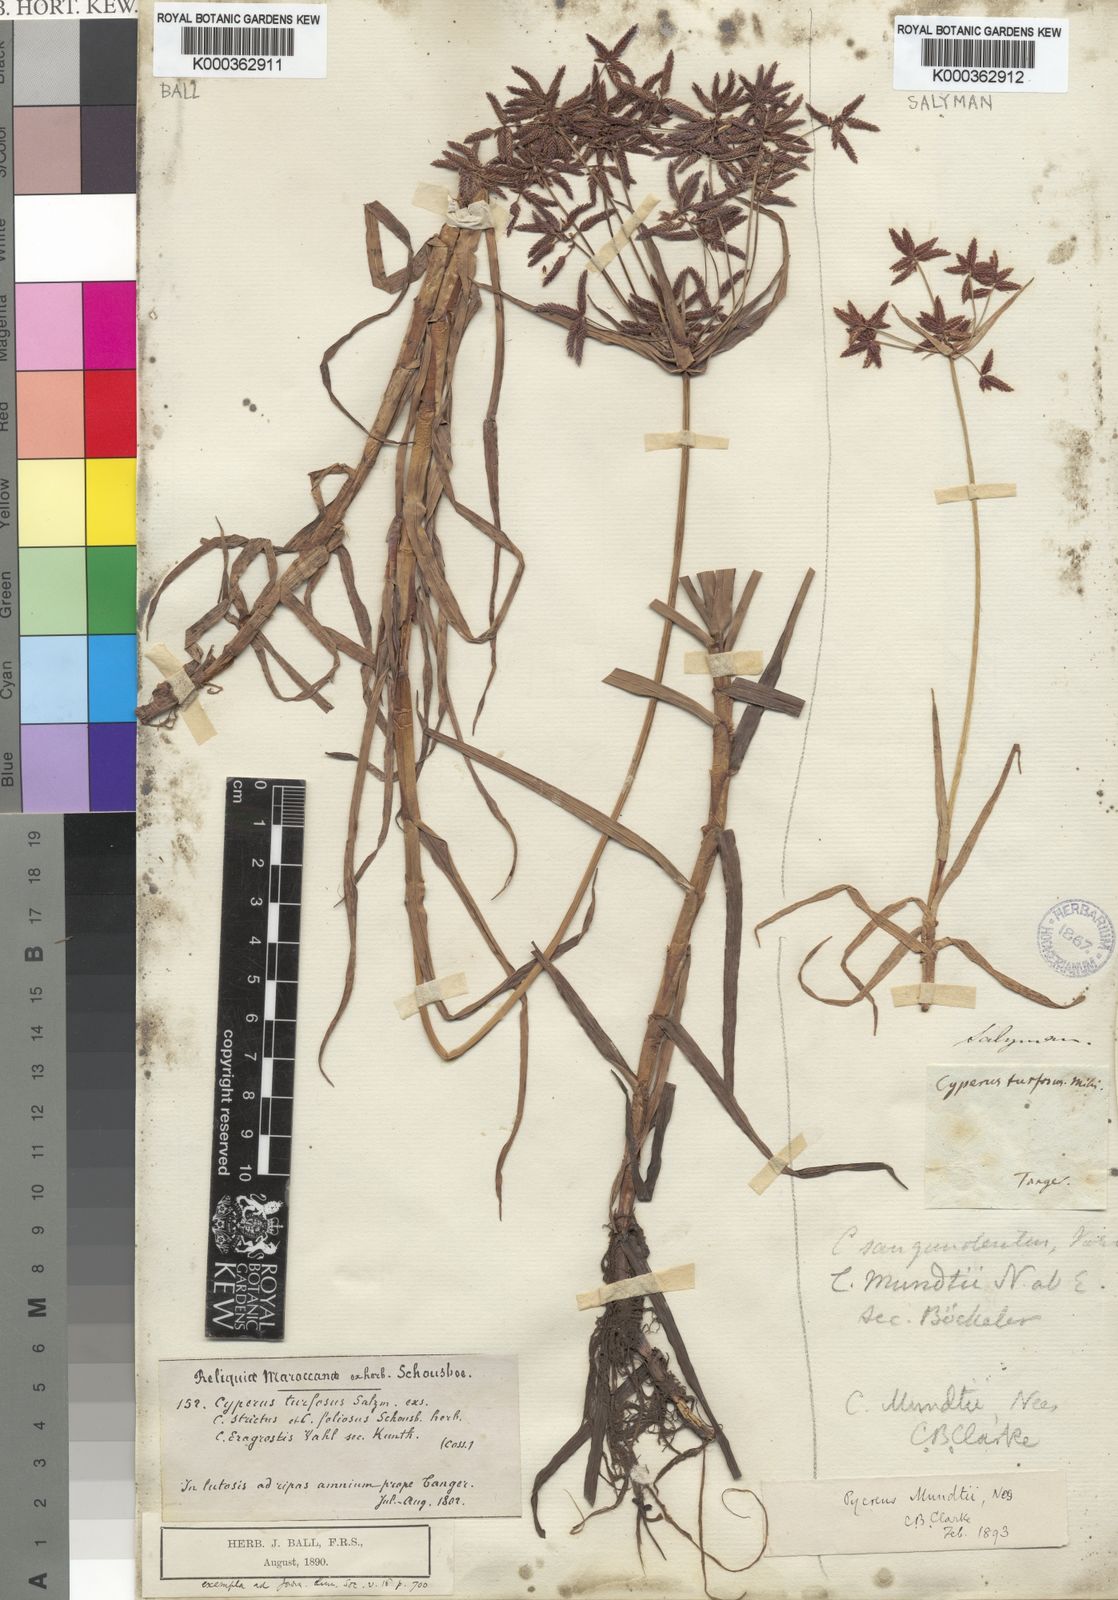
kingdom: Plantae
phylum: Tracheophyta
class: Liliopsida
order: Poales
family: Cyperaceae
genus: Cyperus
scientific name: Cyperus mundii
